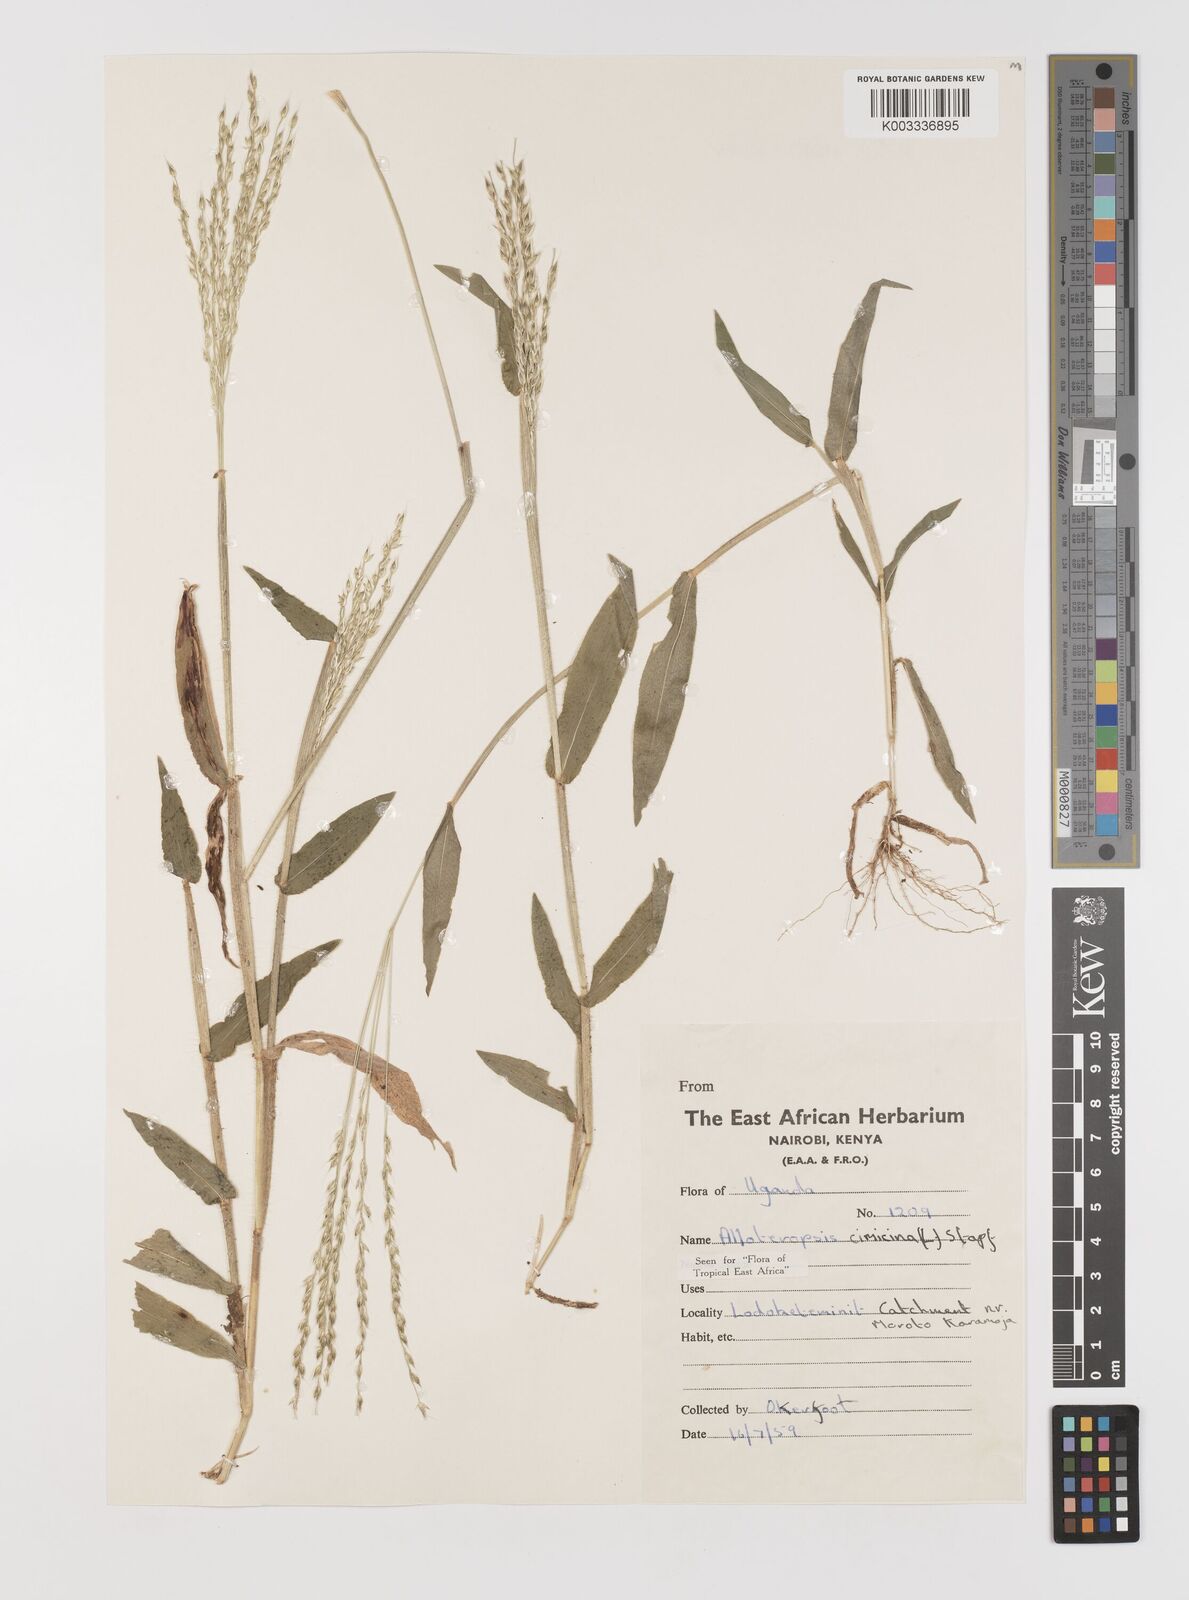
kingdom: Plantae
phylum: Tracheophyta
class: Liliopsida
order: Poales
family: Poaceae
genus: Alloteropsis
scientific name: Alloteropsis cimicina
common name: Summergrass
